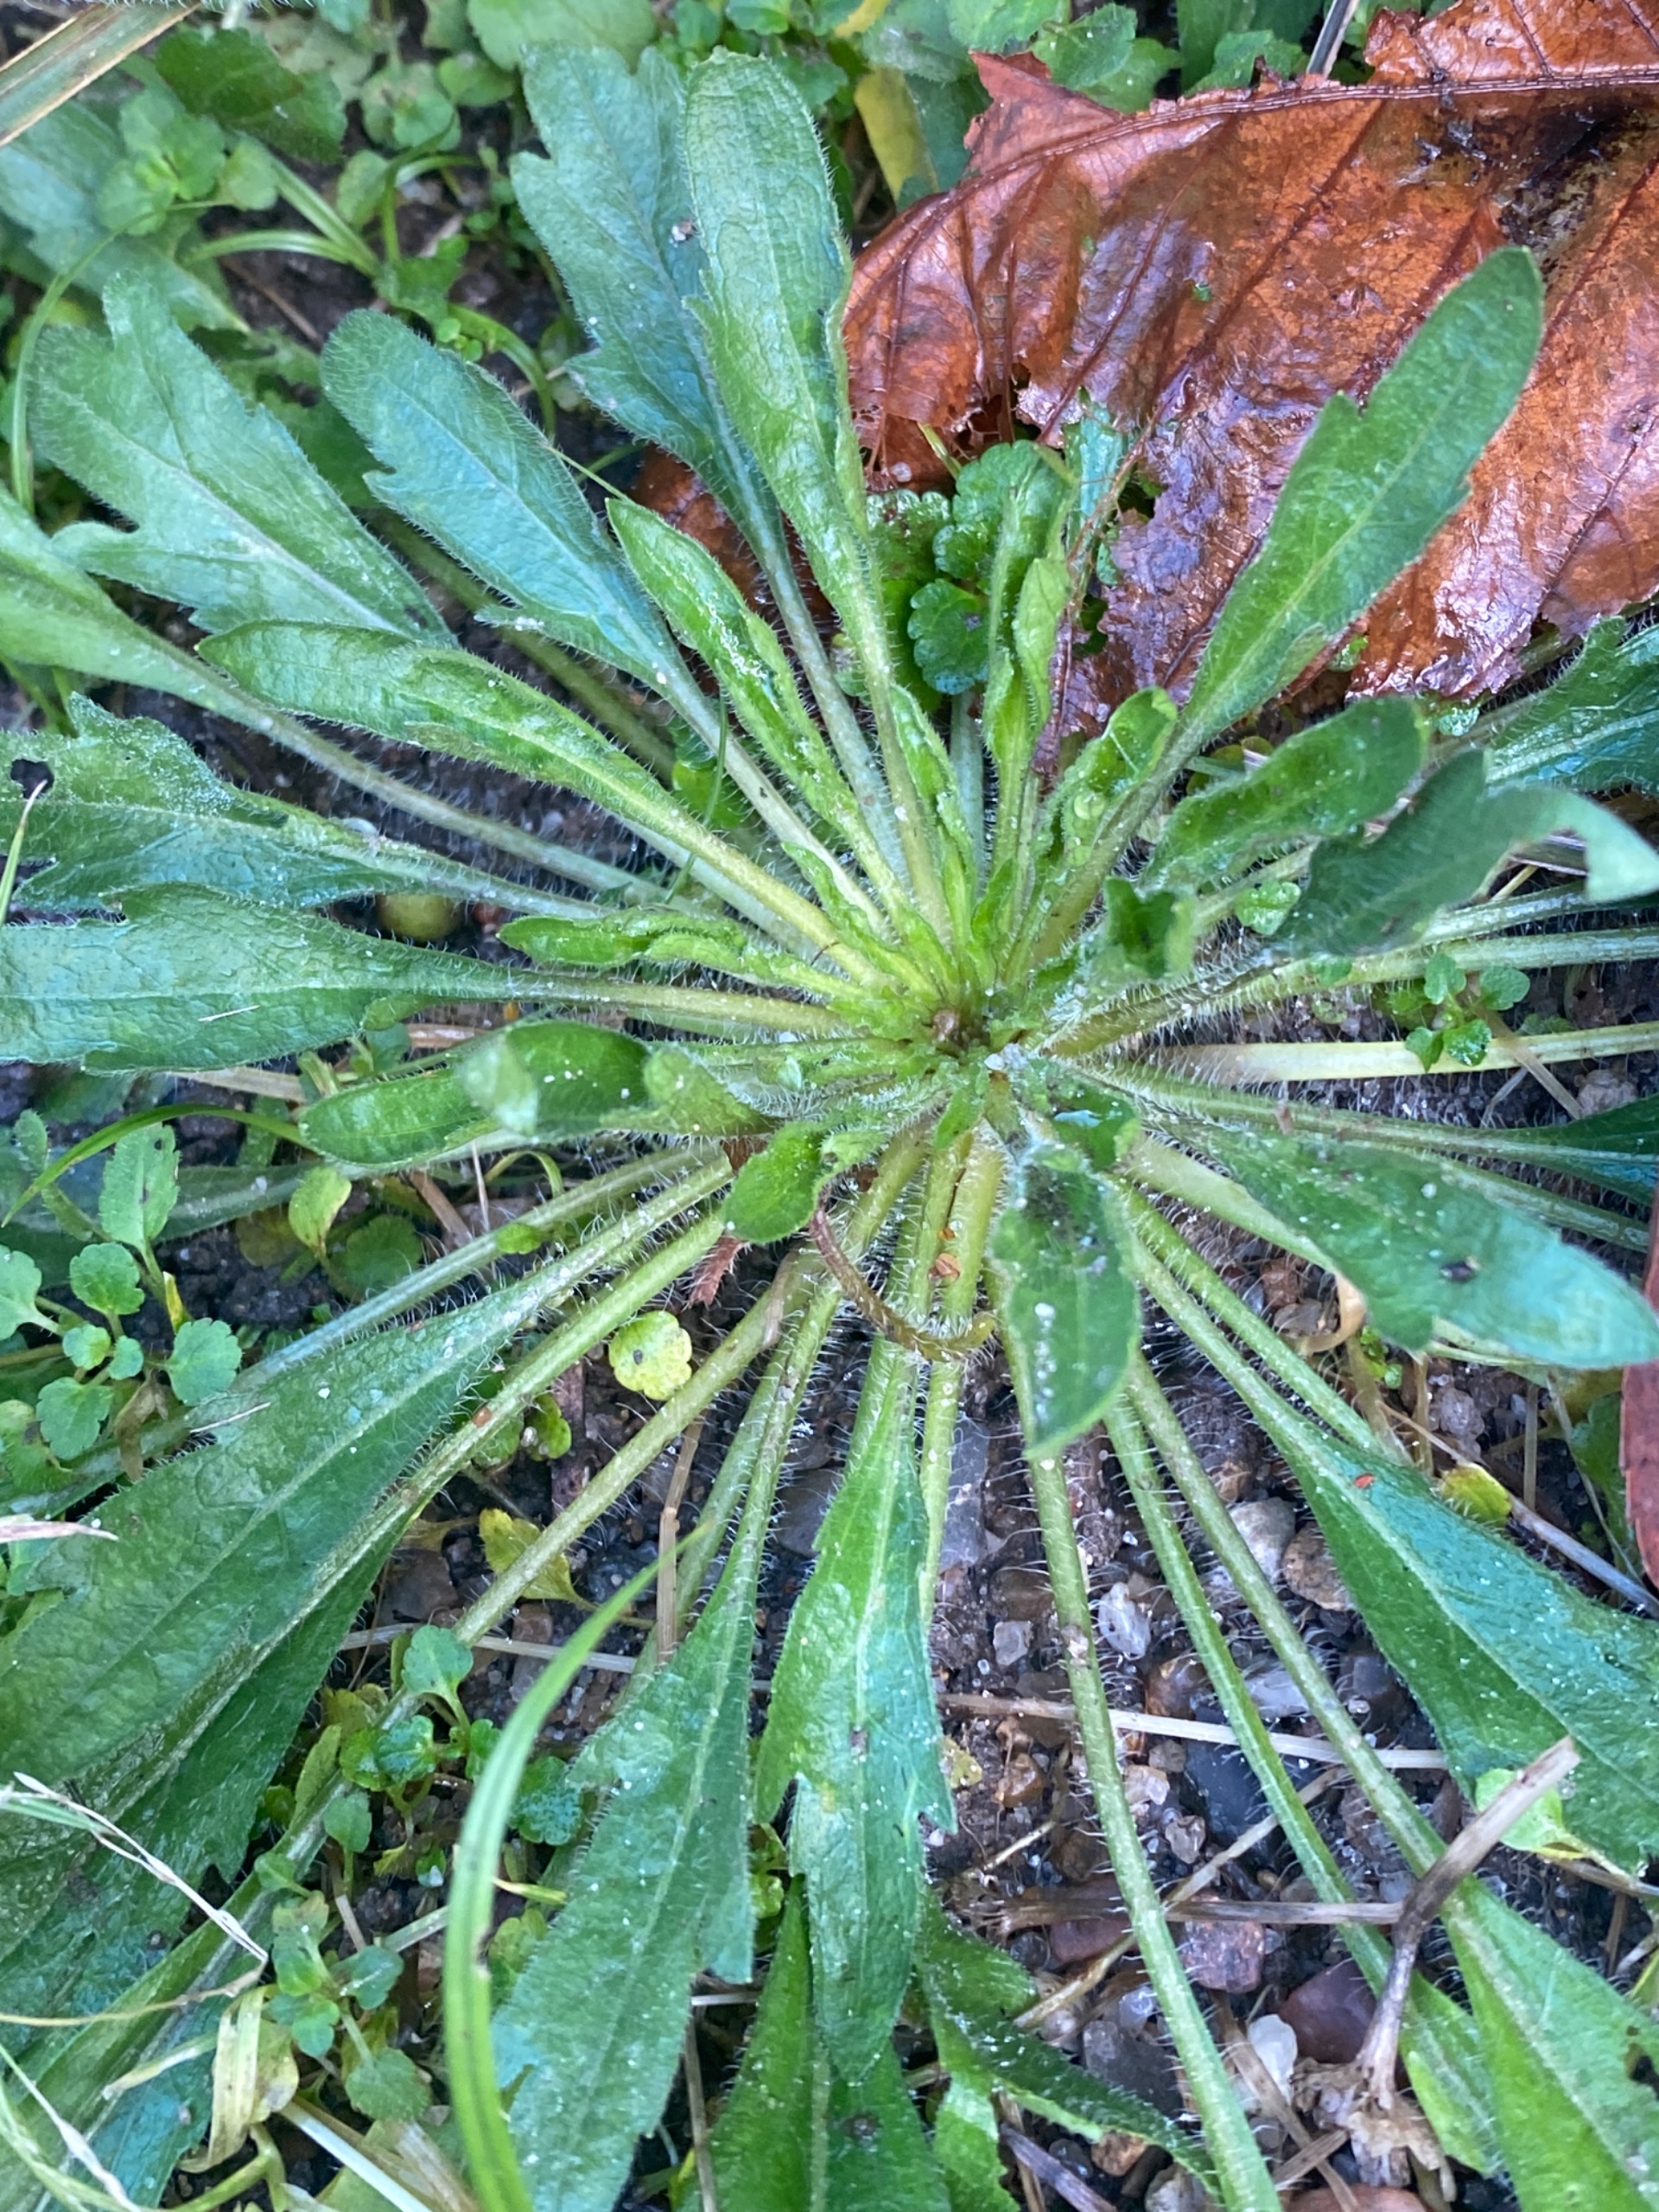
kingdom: Plantae
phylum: Tracheophyta
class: Magnoliopsida
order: Asterales
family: Asteraceae
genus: Erigeron
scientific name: Erigeron canadensis
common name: Kanadisk bakkestjerne
